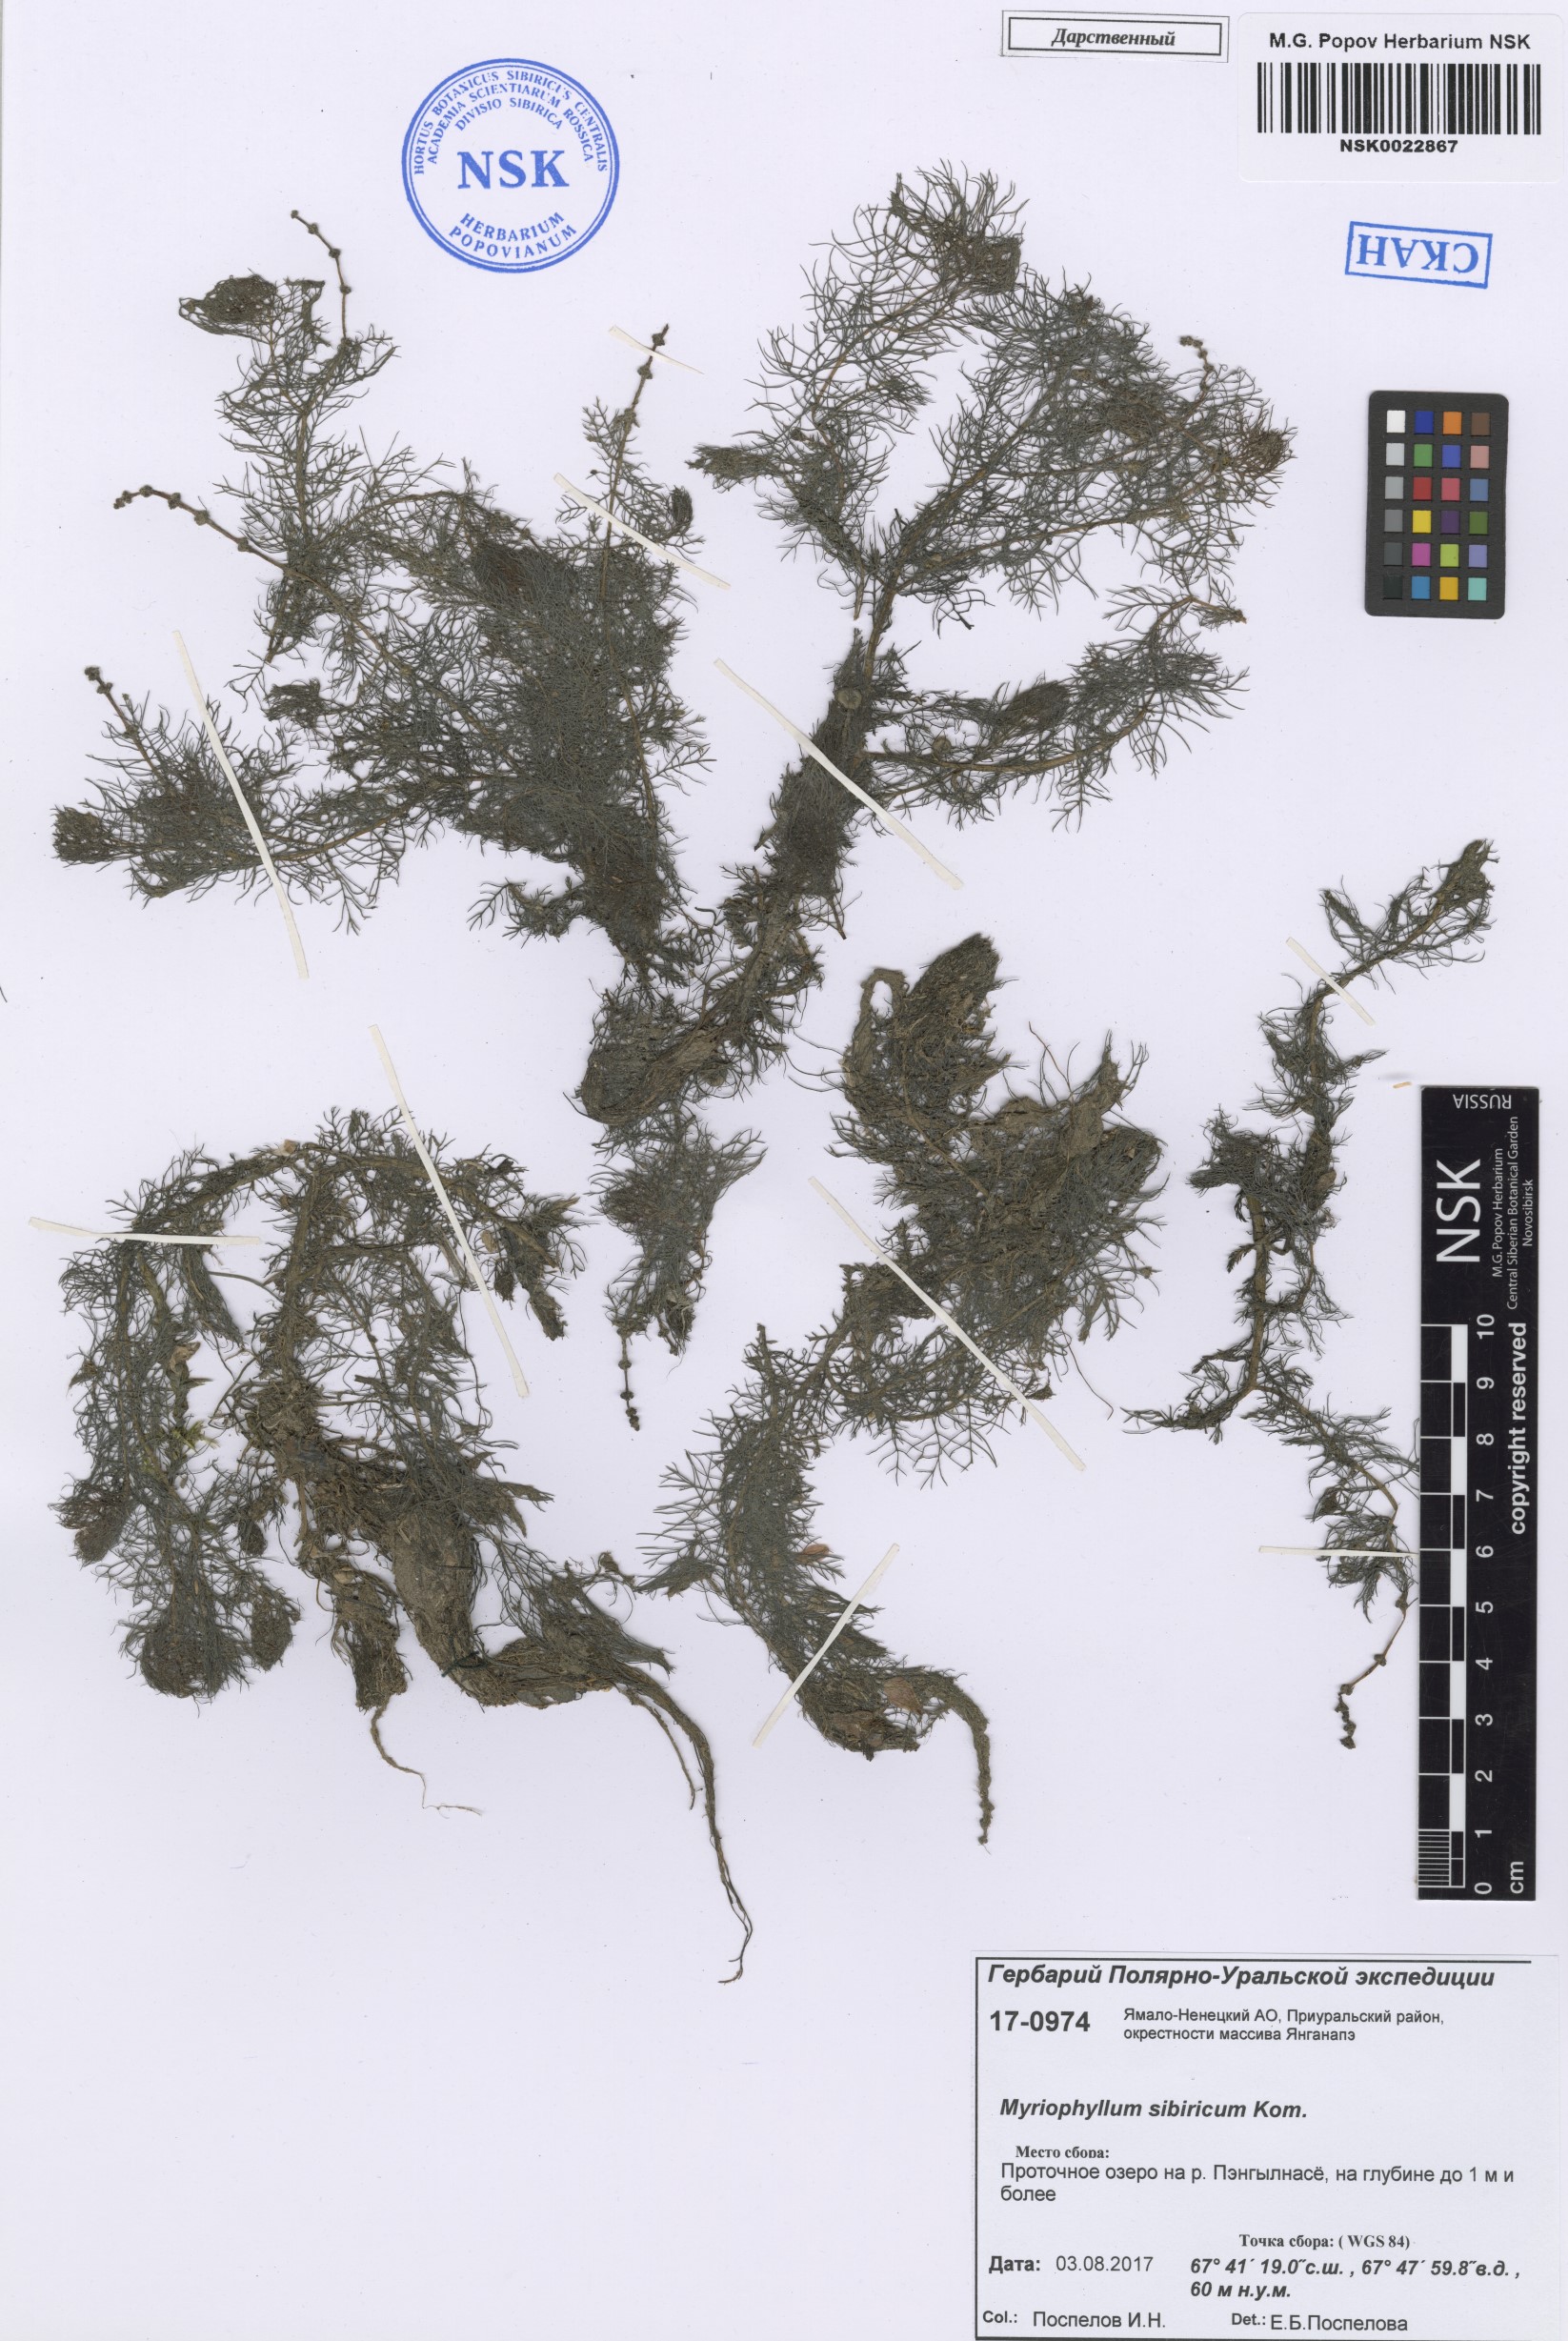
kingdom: Plantae
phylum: Tracheophyta
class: Magnoliopsida
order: Saxifragales
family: Haloragaceae
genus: Myriophyllum
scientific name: Myriophyllum sibiricum
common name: Siberian water-milfoil
